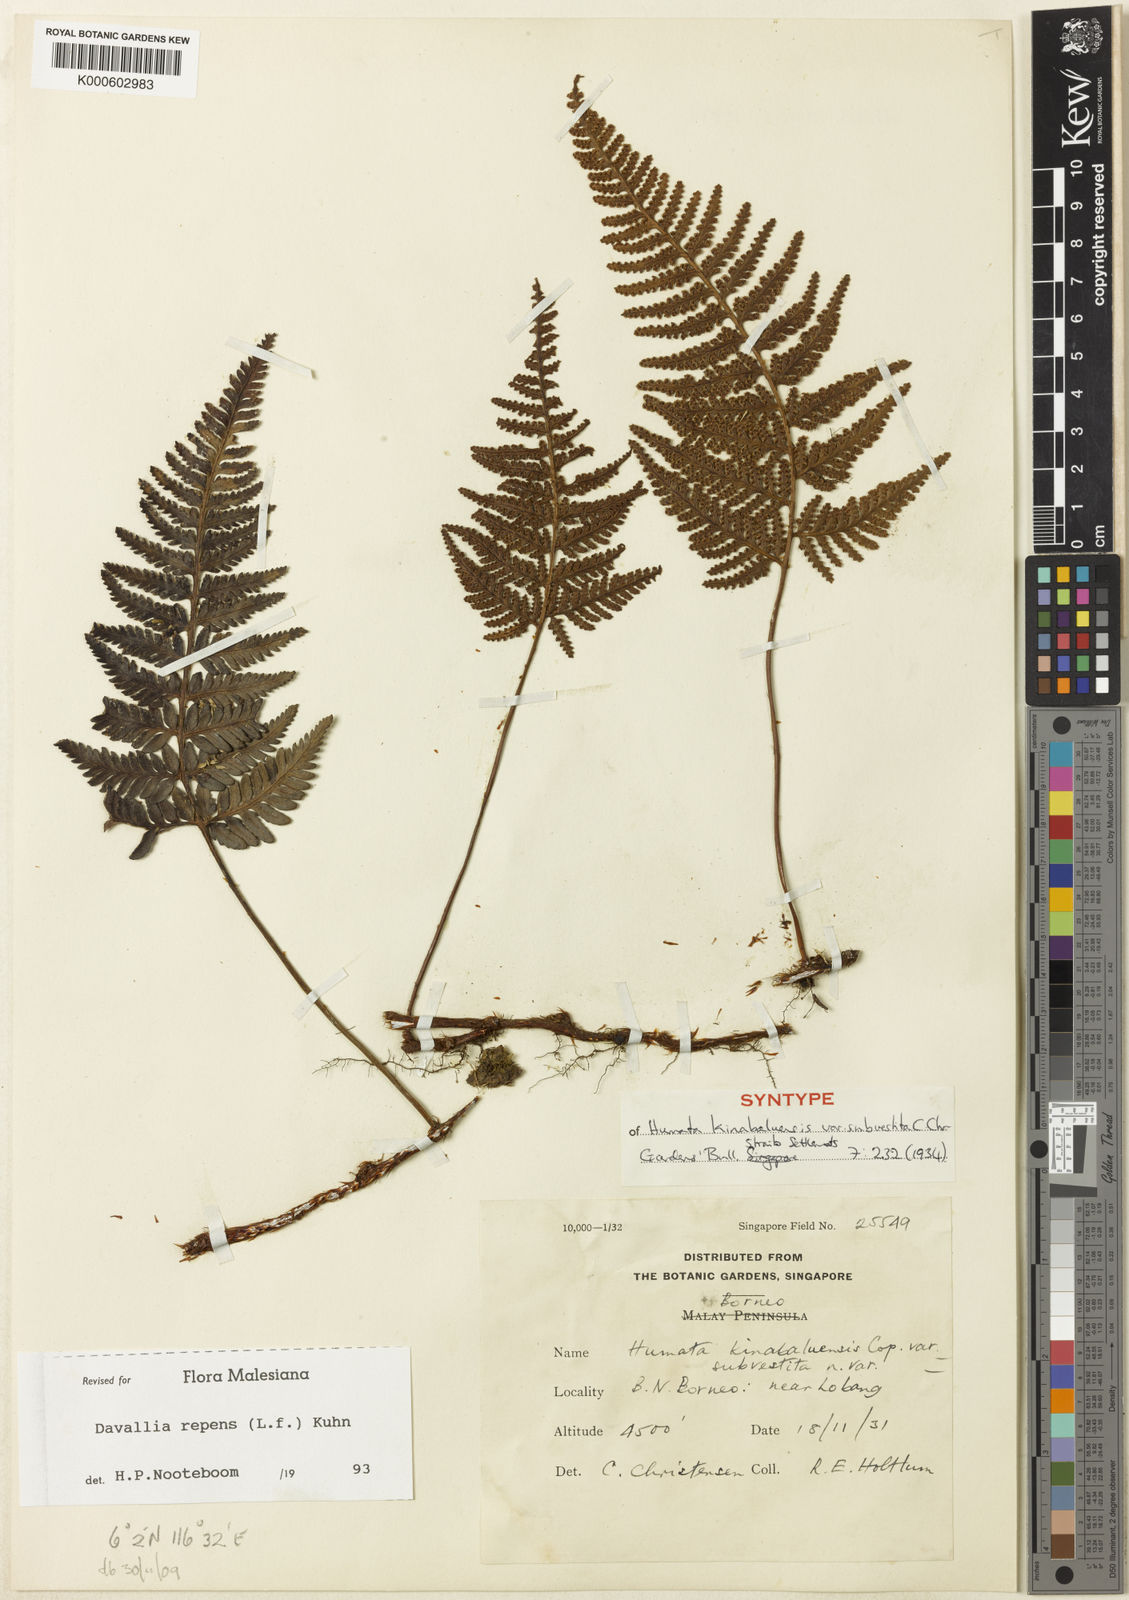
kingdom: Plantae
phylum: Tracheophyta
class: Polypodiopsida
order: Polypodiales
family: Davalliaceae
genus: Davallia
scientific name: Davallia repens
